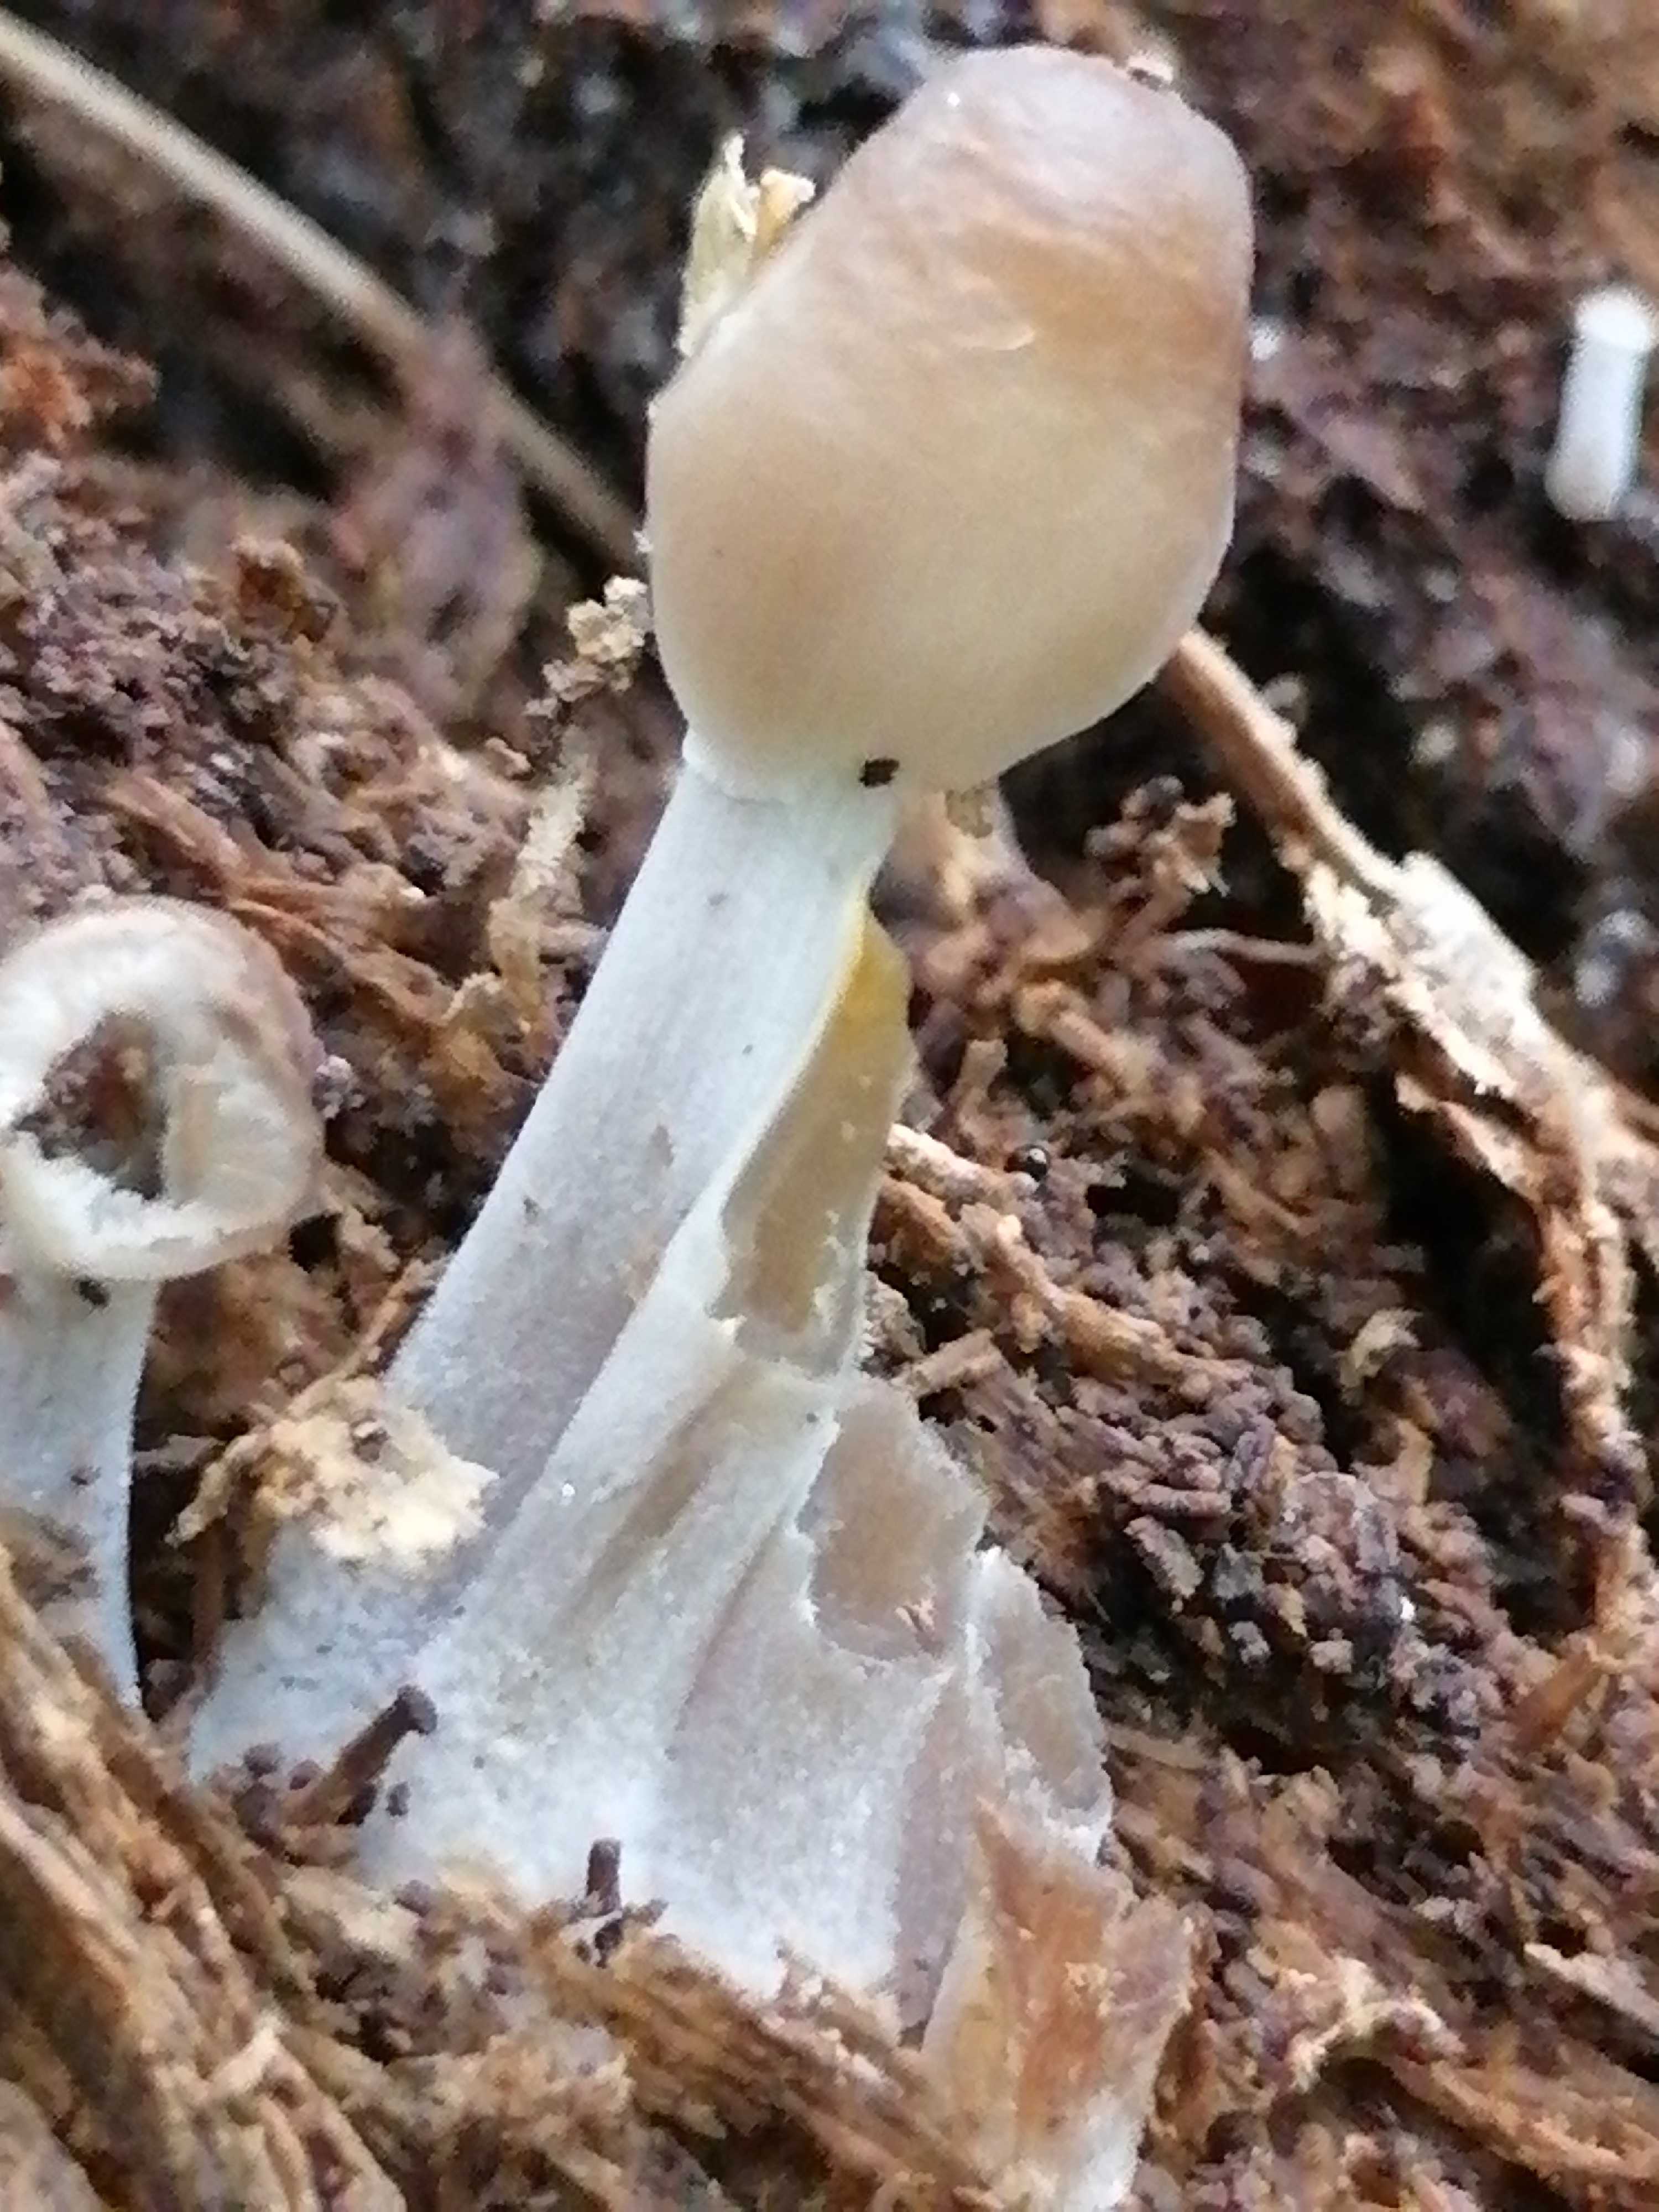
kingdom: Fungi
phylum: Basidiomycota
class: Agaricomycetes
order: Agaricales
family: Mycenaceae
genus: Mycena
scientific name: Mycena inclinata
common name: nikkende huesvamp
